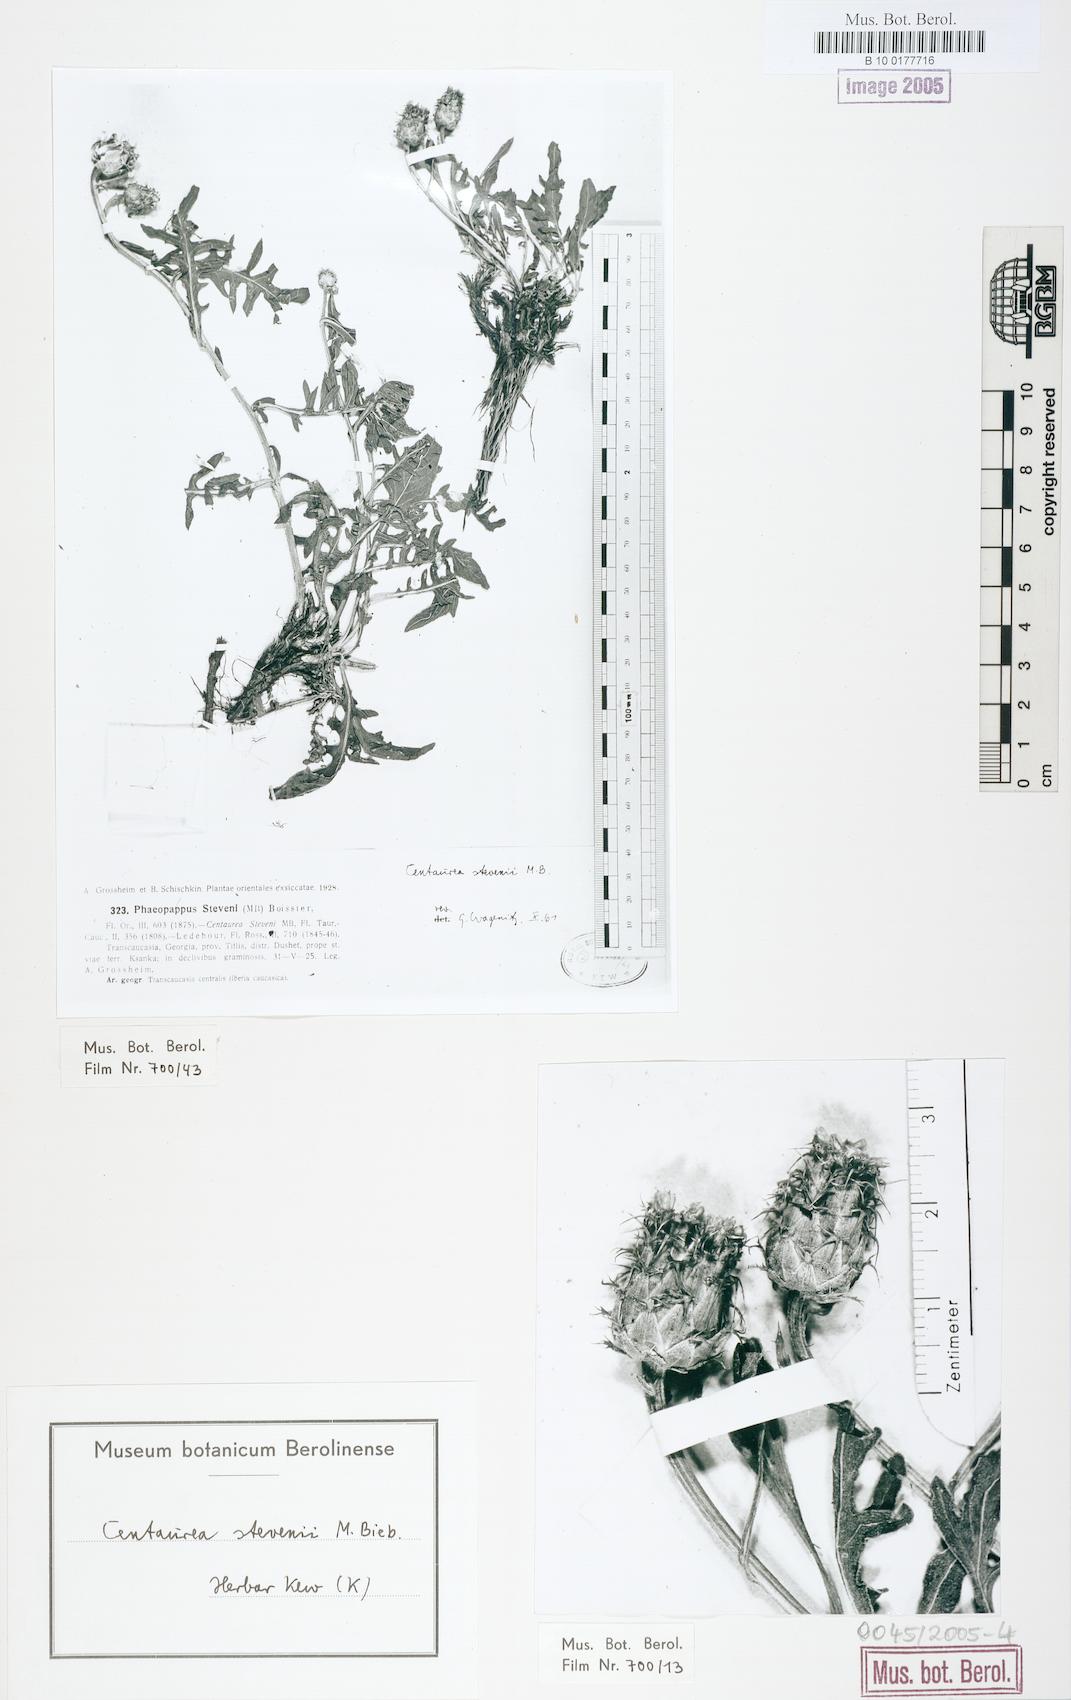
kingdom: Plantae
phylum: Tracheophyta
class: Magnoliopsida
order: Asterales
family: Asteraceae
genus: Centaurea
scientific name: Centaurea stevenii
